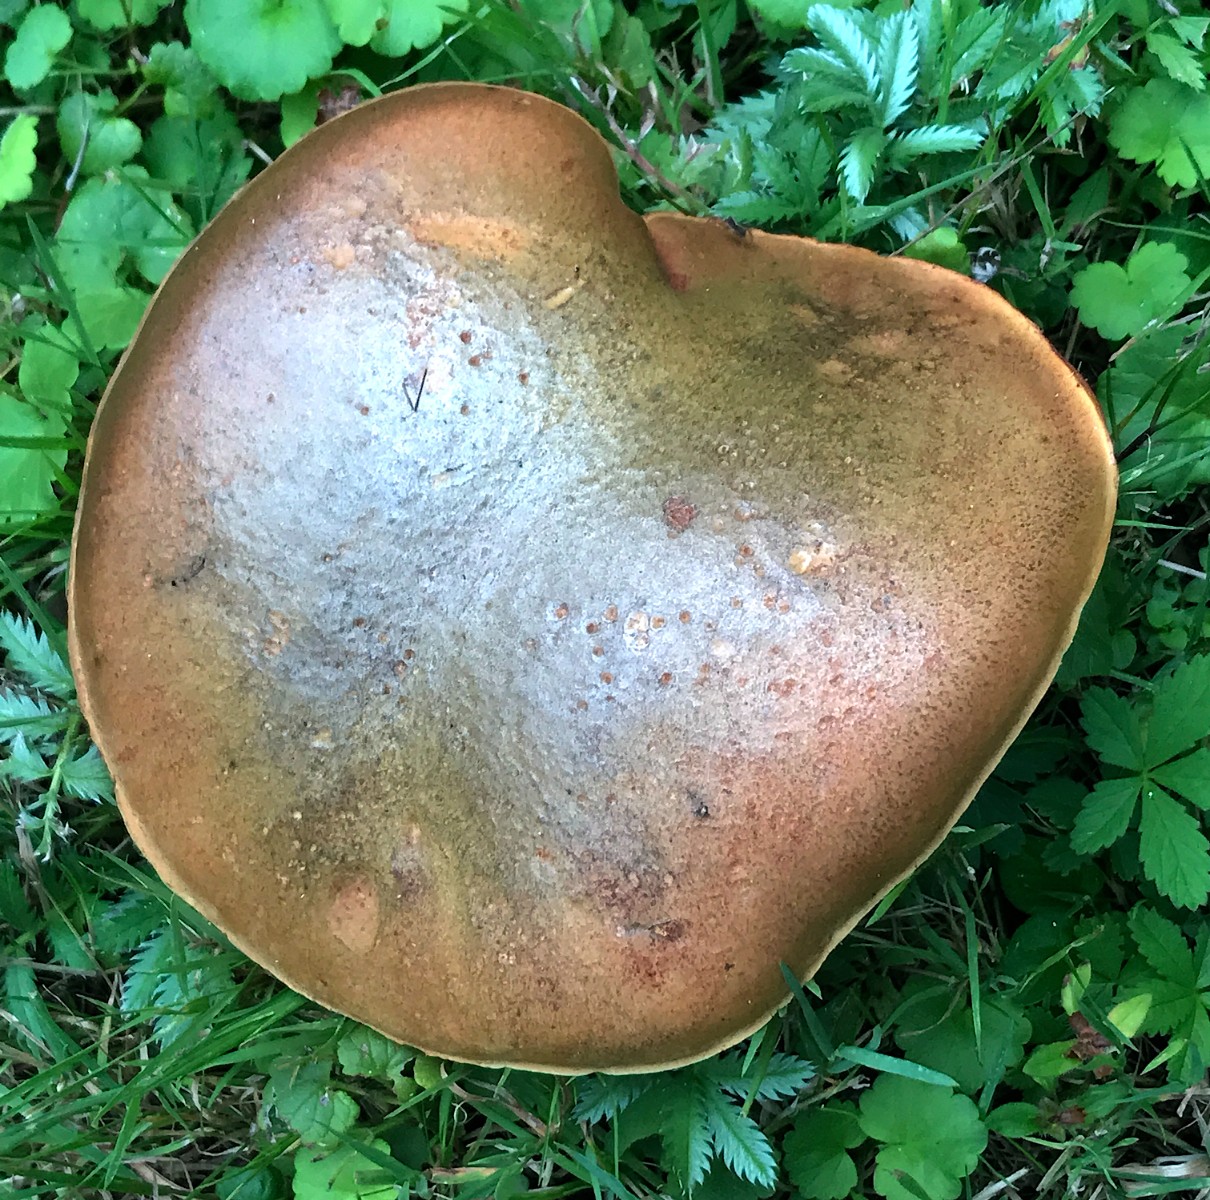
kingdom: Fungi
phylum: Basidiomycota
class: Agaricomycetes
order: Boletales
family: Boletaceae
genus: Suillellus
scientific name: Suillellus luridus
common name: netstokket indigorørhat
